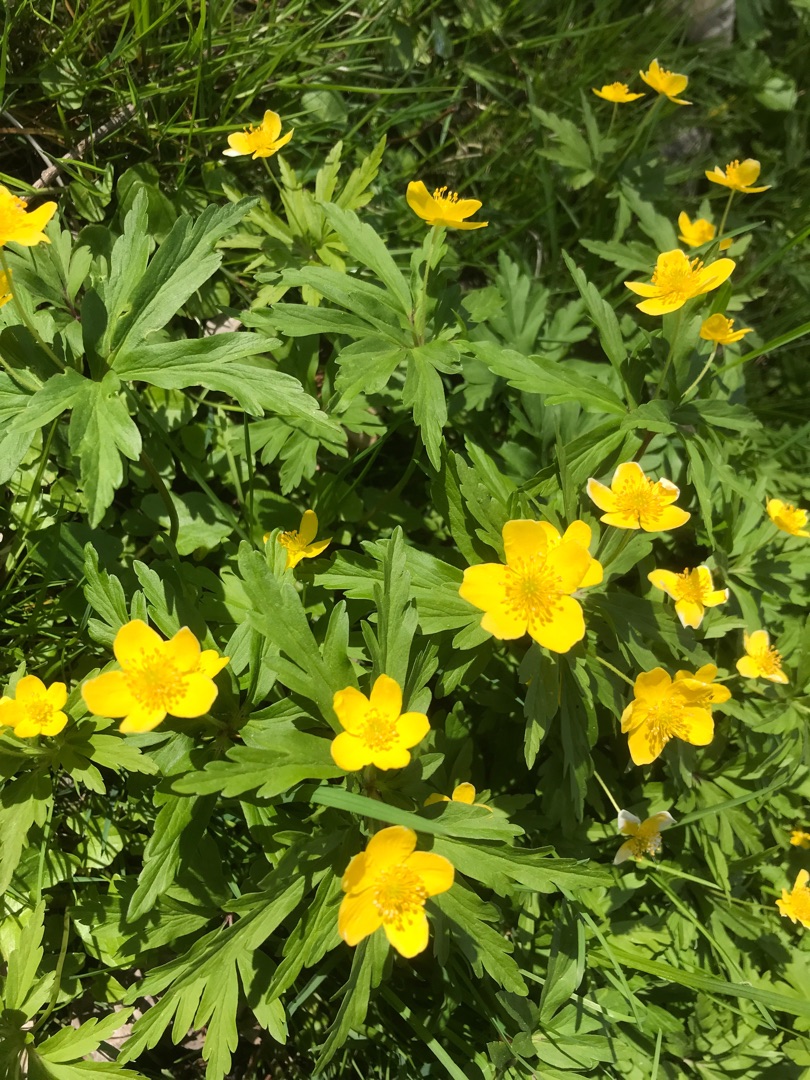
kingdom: Plantae
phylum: Tracheophyta
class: Magnoliopsida
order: Ranunculales
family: Ranunculaceae
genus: Anemone
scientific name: Anemone ranunculoides
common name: Gul anemone
